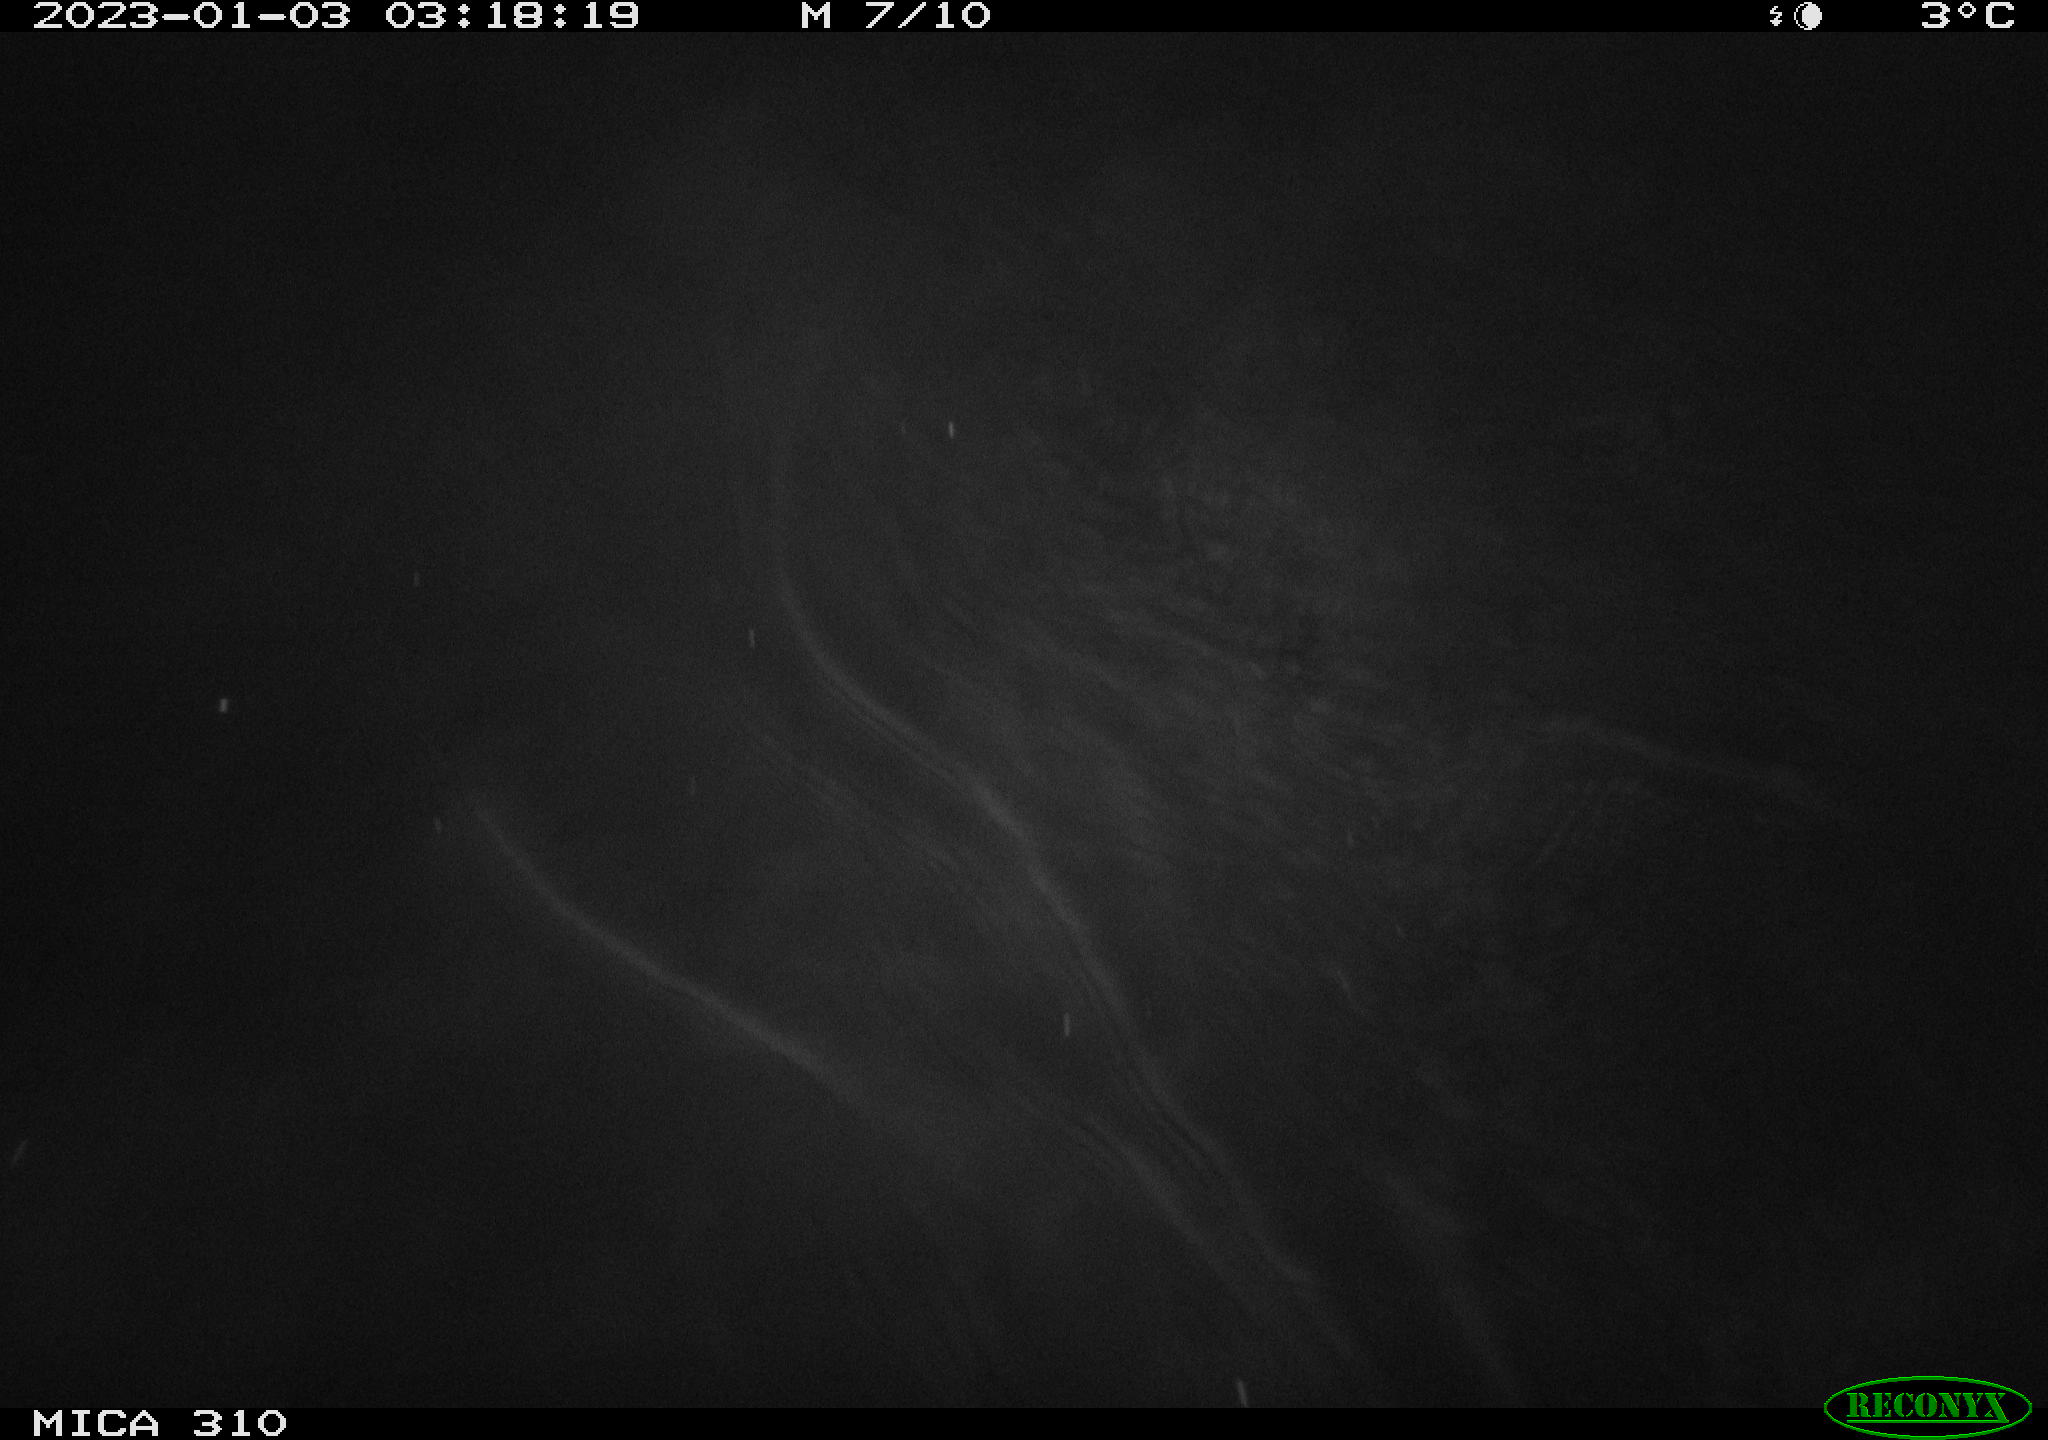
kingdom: Animalia
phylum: Chordata
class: Mammalia
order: Rodentia
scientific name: Rodentia
